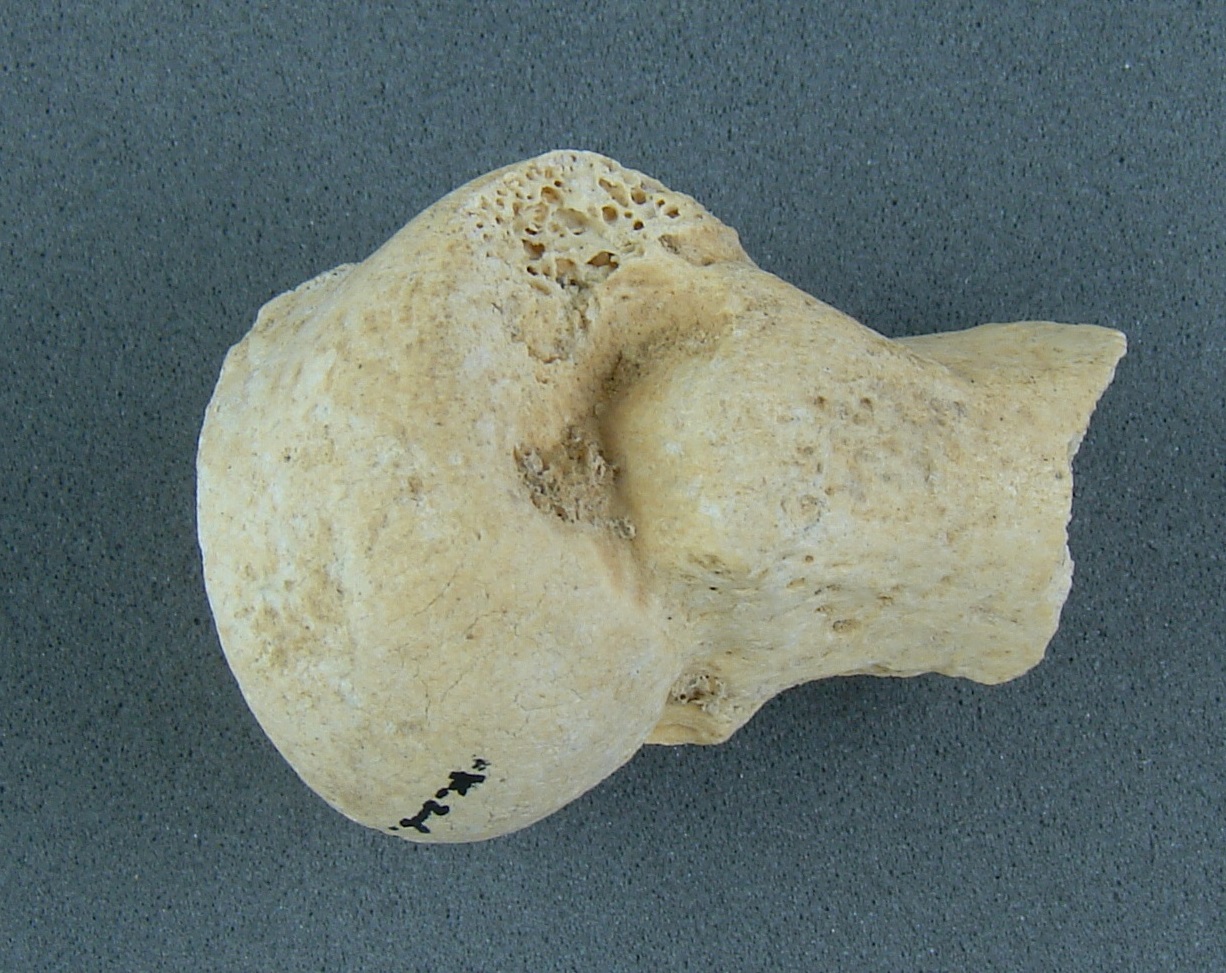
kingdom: Animalia
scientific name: Animalia
